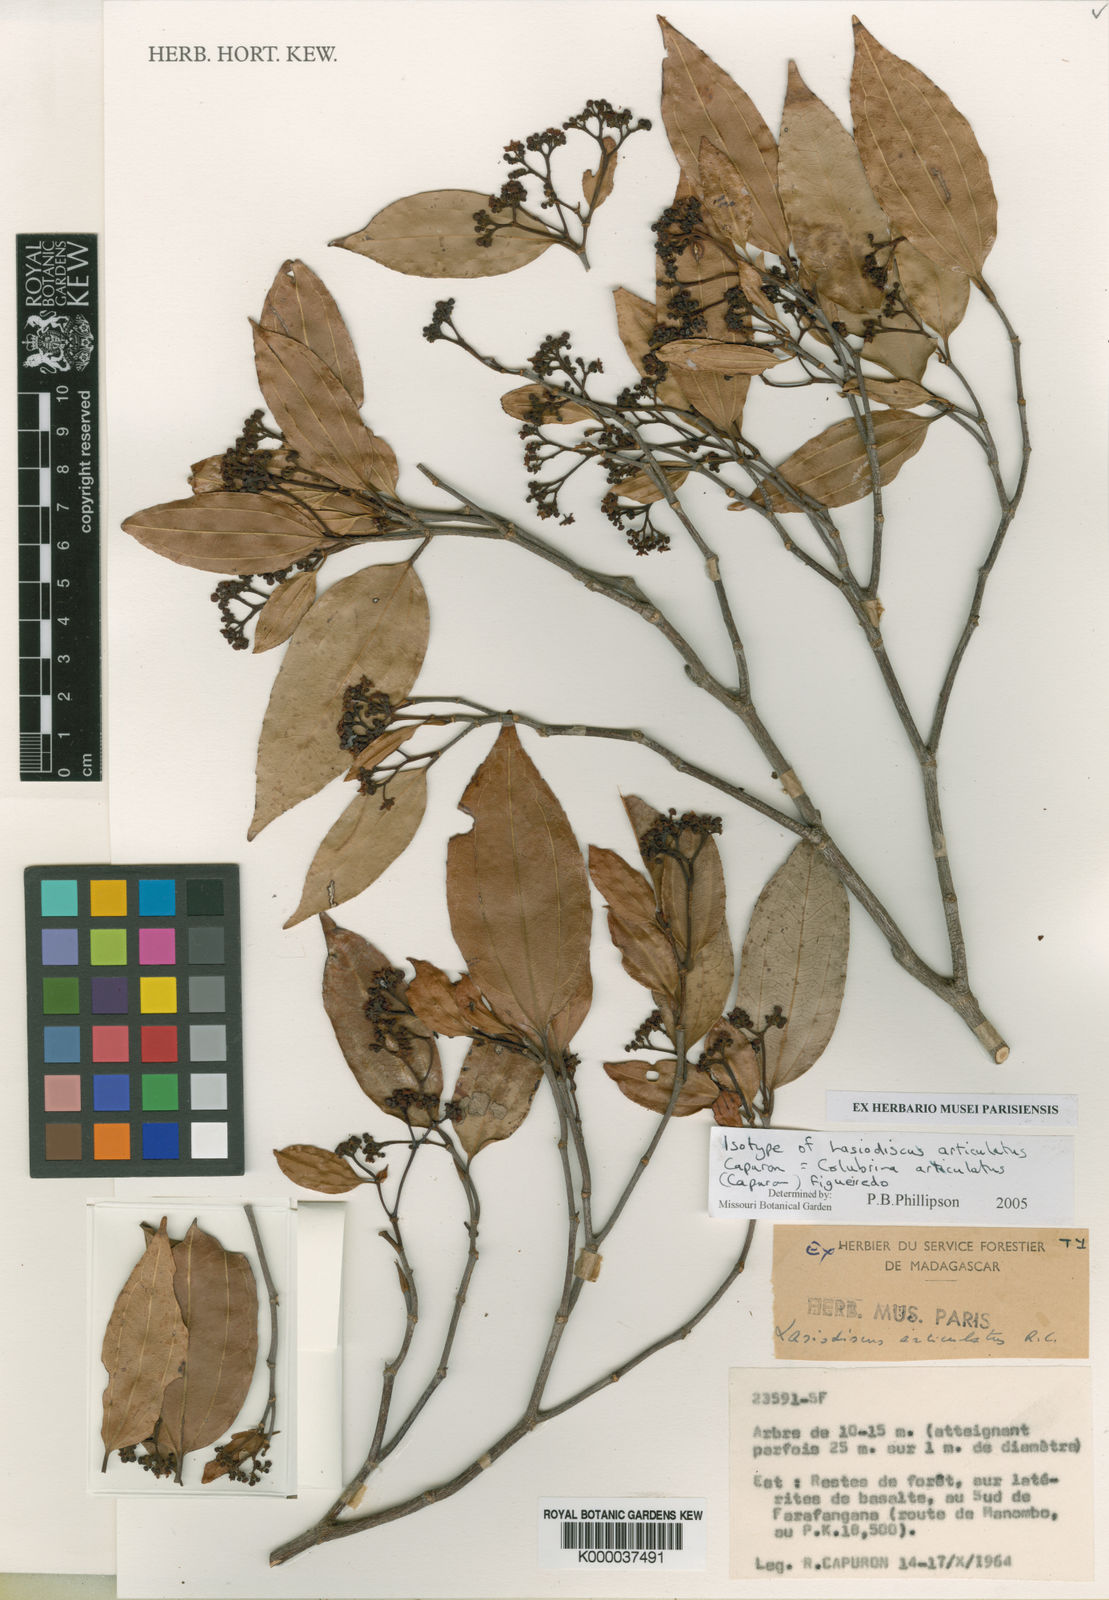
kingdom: Plantae
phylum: Tracheophyta
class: Magnoliopsida
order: Rosales
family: Rhamnaceae
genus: Colubrina
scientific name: Colubrina articulata
